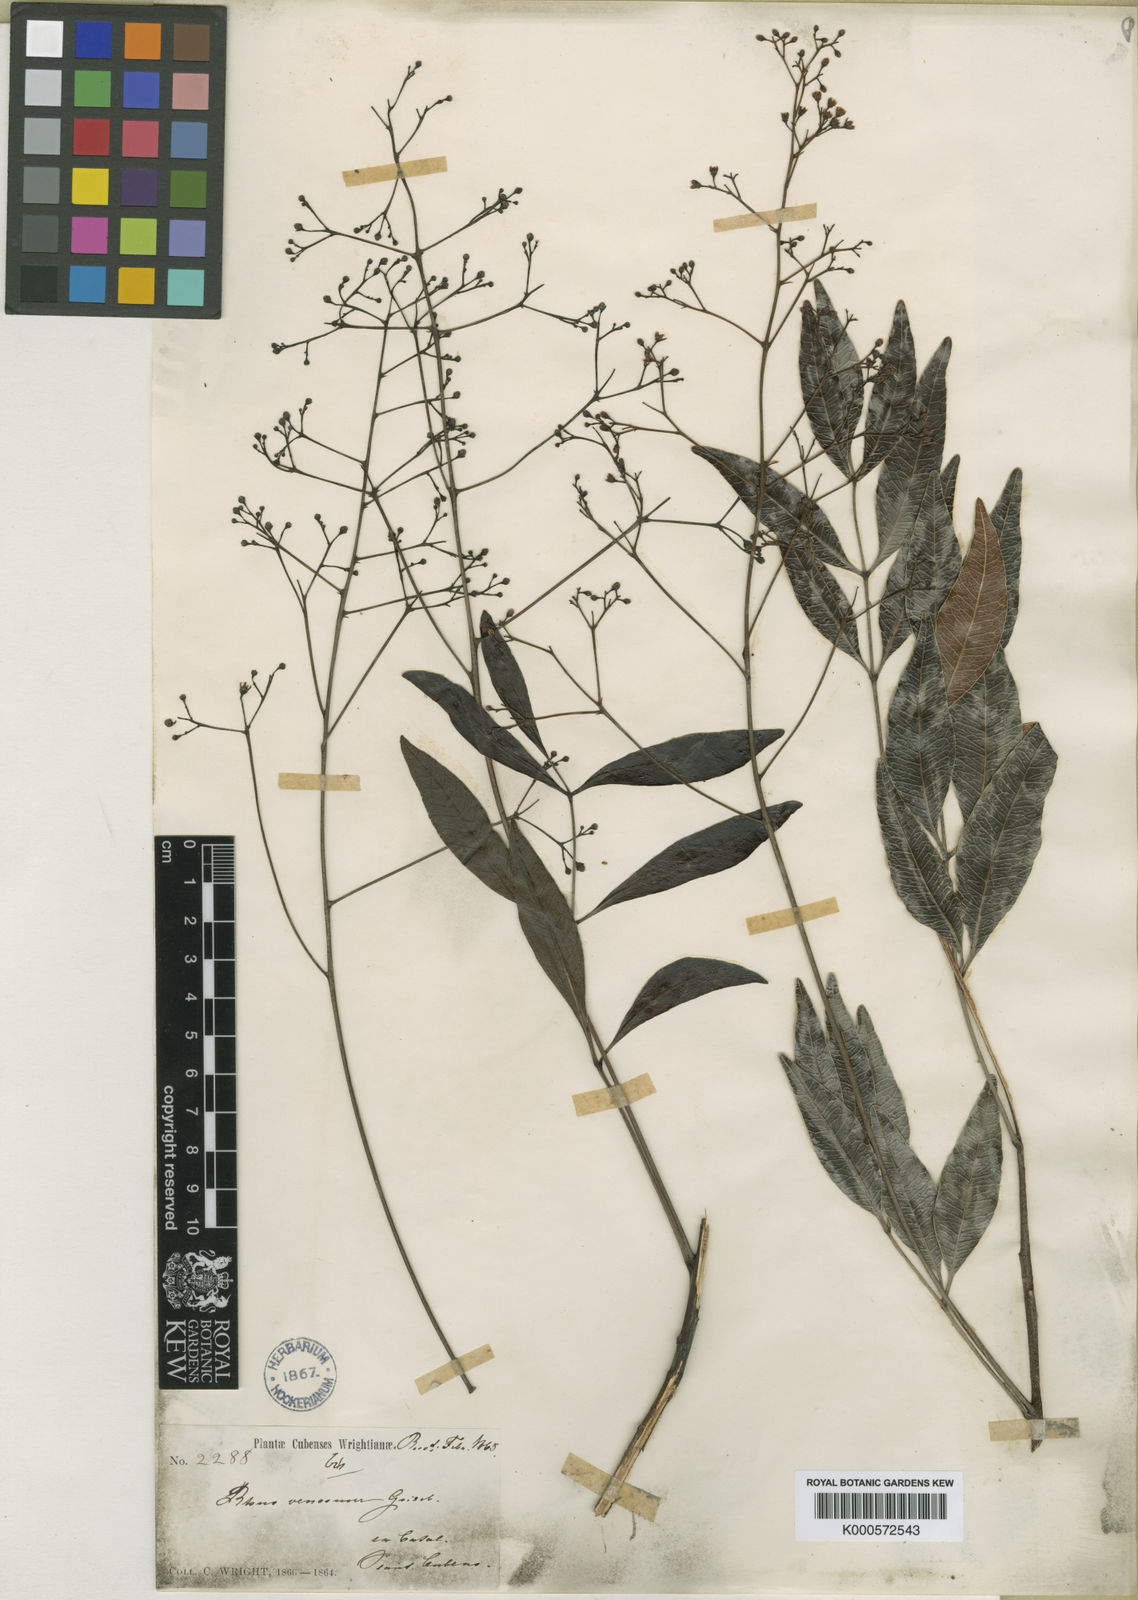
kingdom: Plantae
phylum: Tracheophyta
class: Magnoliopsida
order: Sapindales
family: Anacardiaceae
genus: Metopium
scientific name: Metopium venosum
